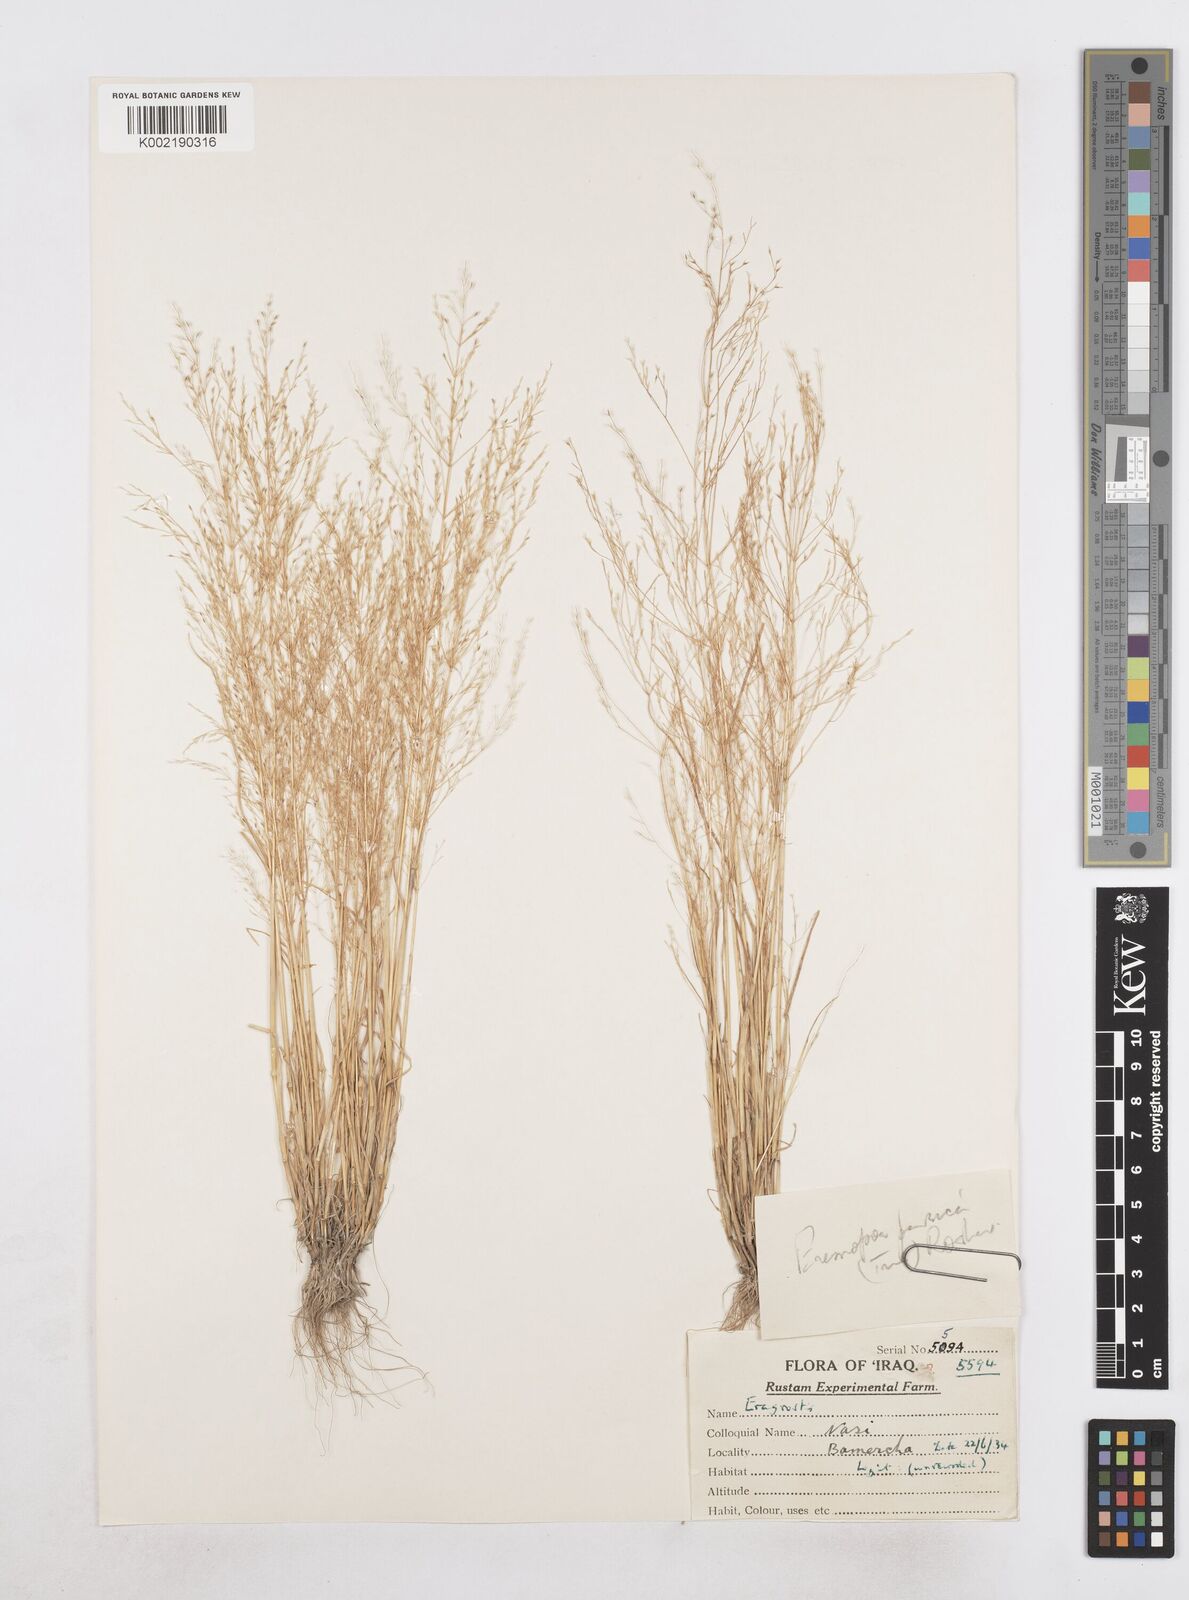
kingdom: Plantae
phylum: Tracheophyta
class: Liliopsida
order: Poales
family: Poaceae
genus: Poa
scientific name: Poa persica
